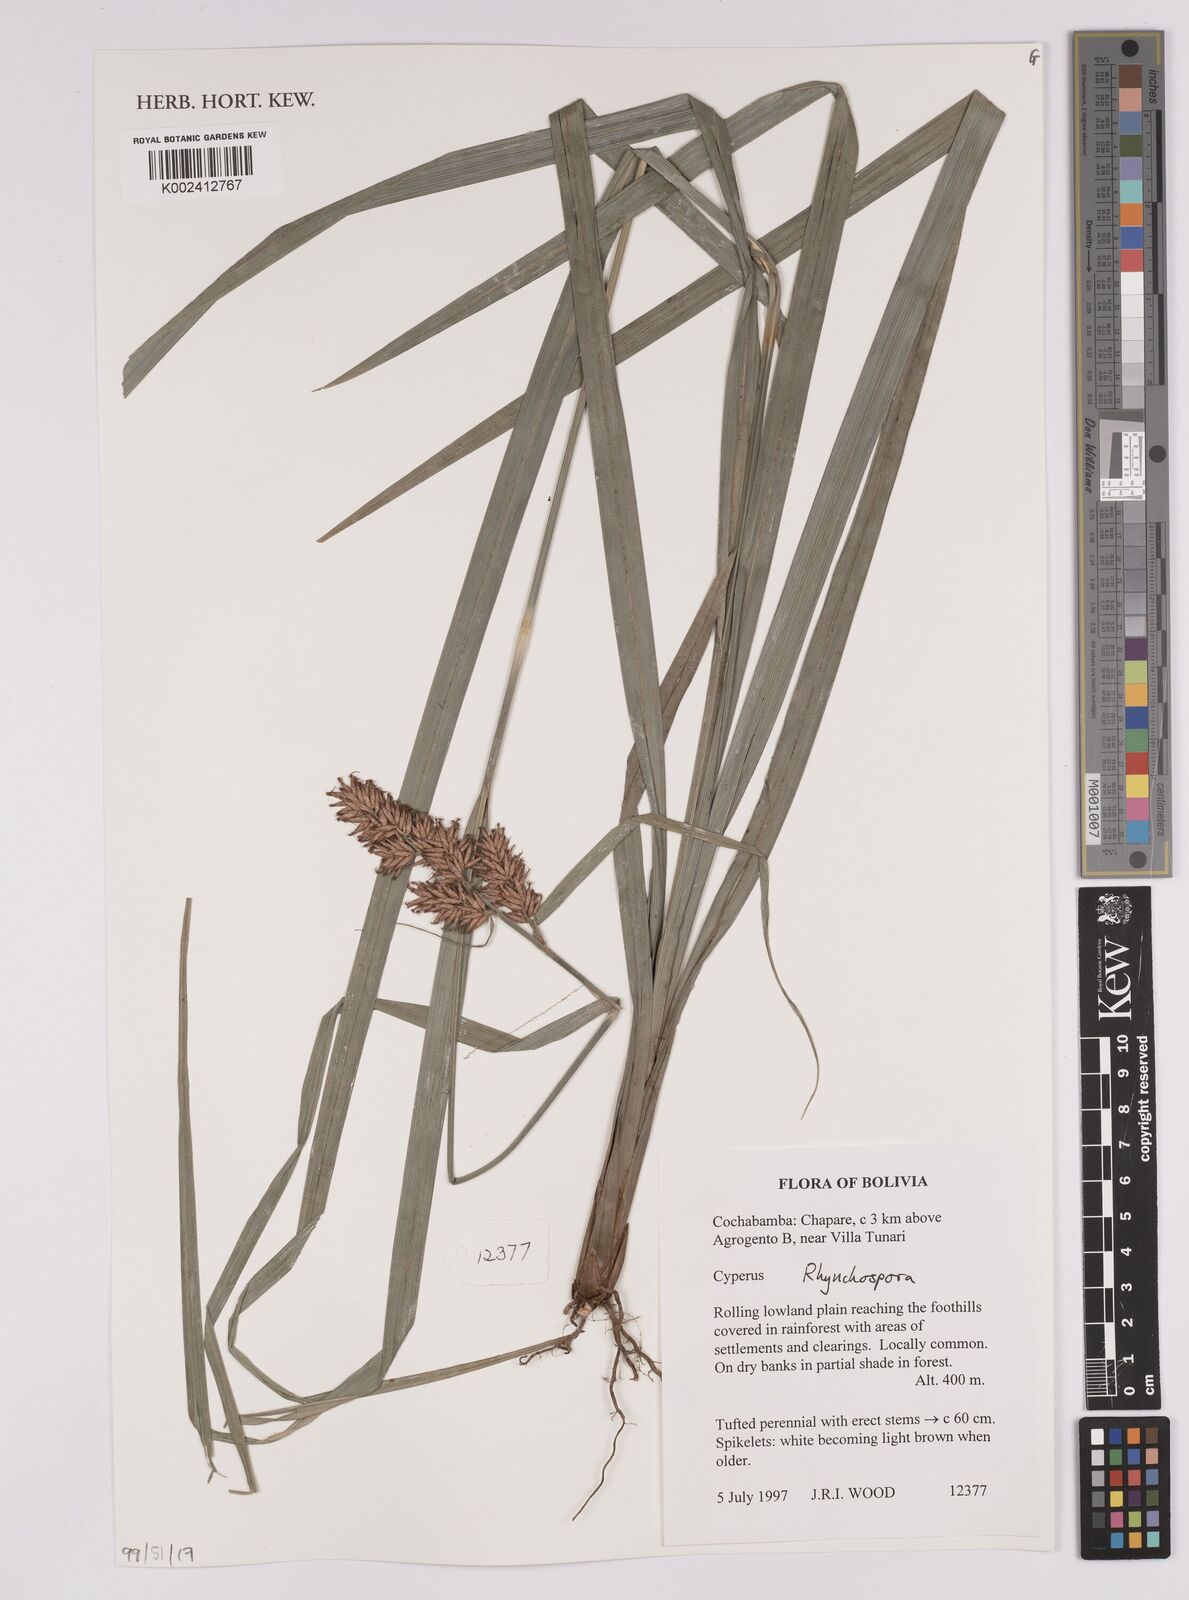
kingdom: Plantae
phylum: Tracheophyta
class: Liliopsida
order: Poales
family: Cyperaceae
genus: Rhynchospora
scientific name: Rhynchospora
